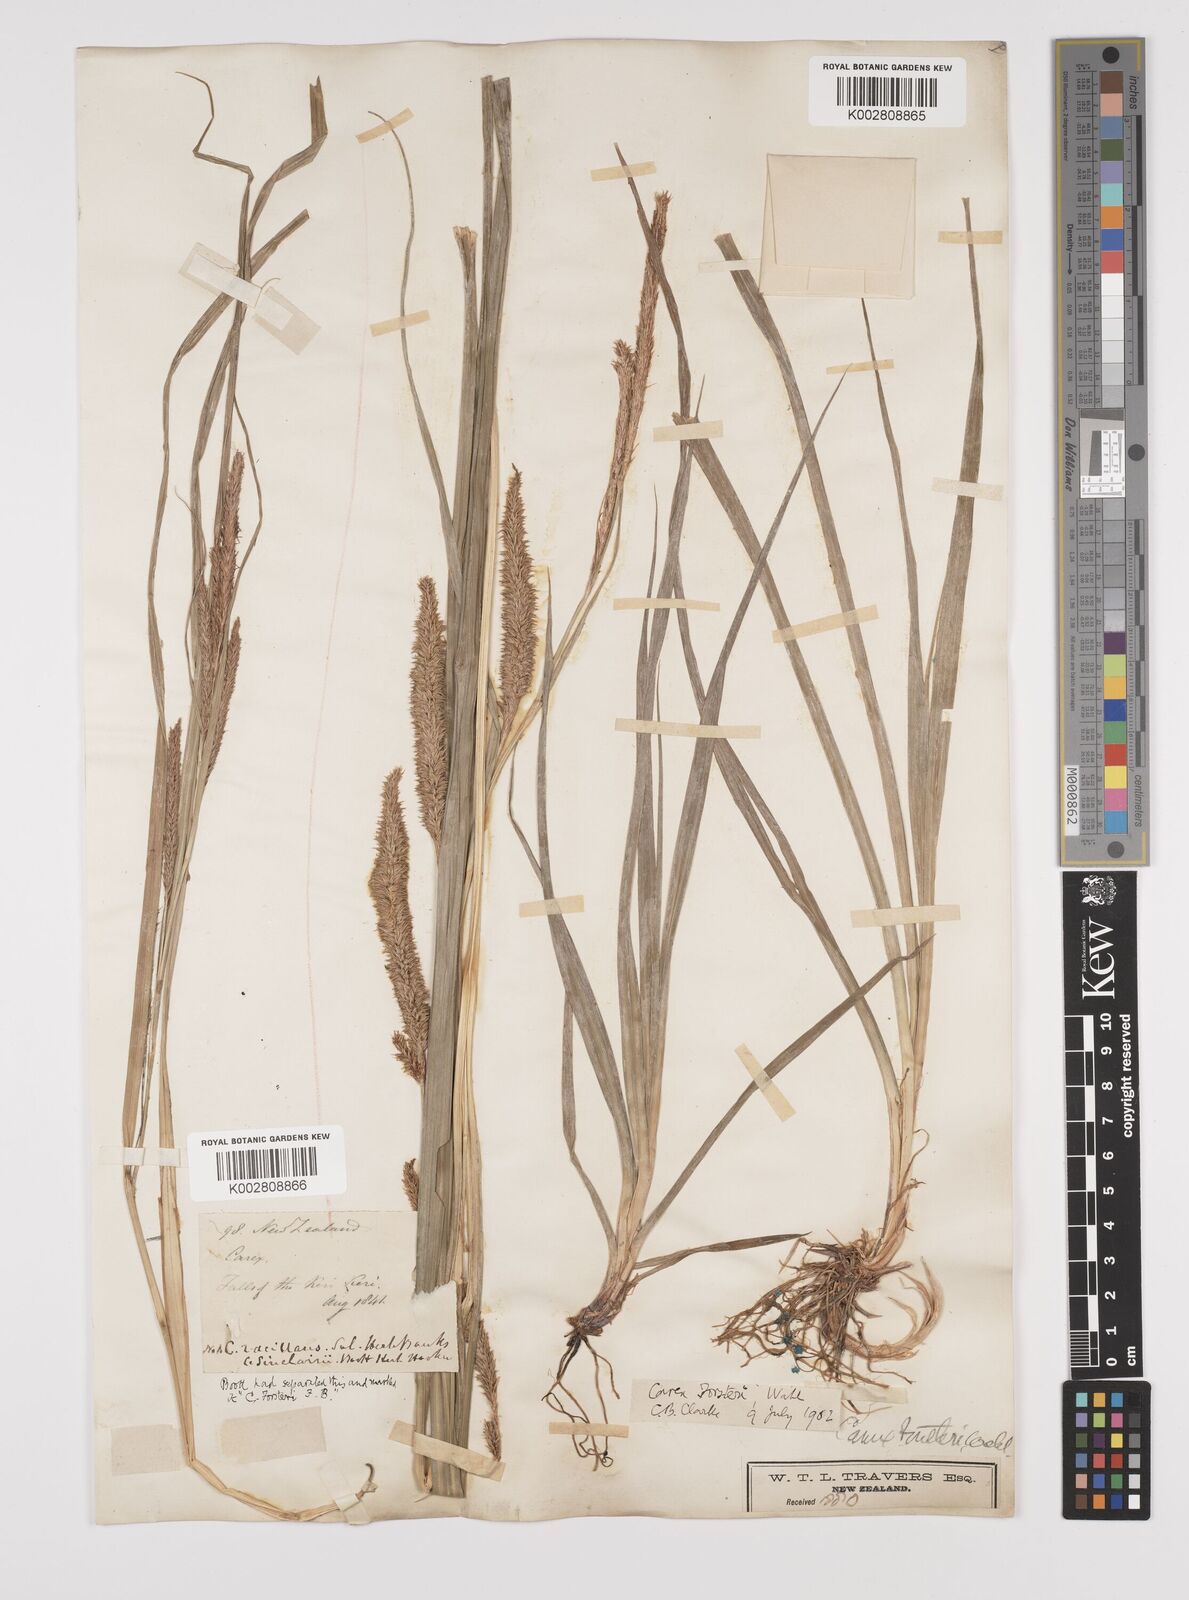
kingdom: Plantae
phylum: Tracheophyta
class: Liliopsida
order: Poales
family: Cyperaceae
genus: Carex
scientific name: Carex forsteri
